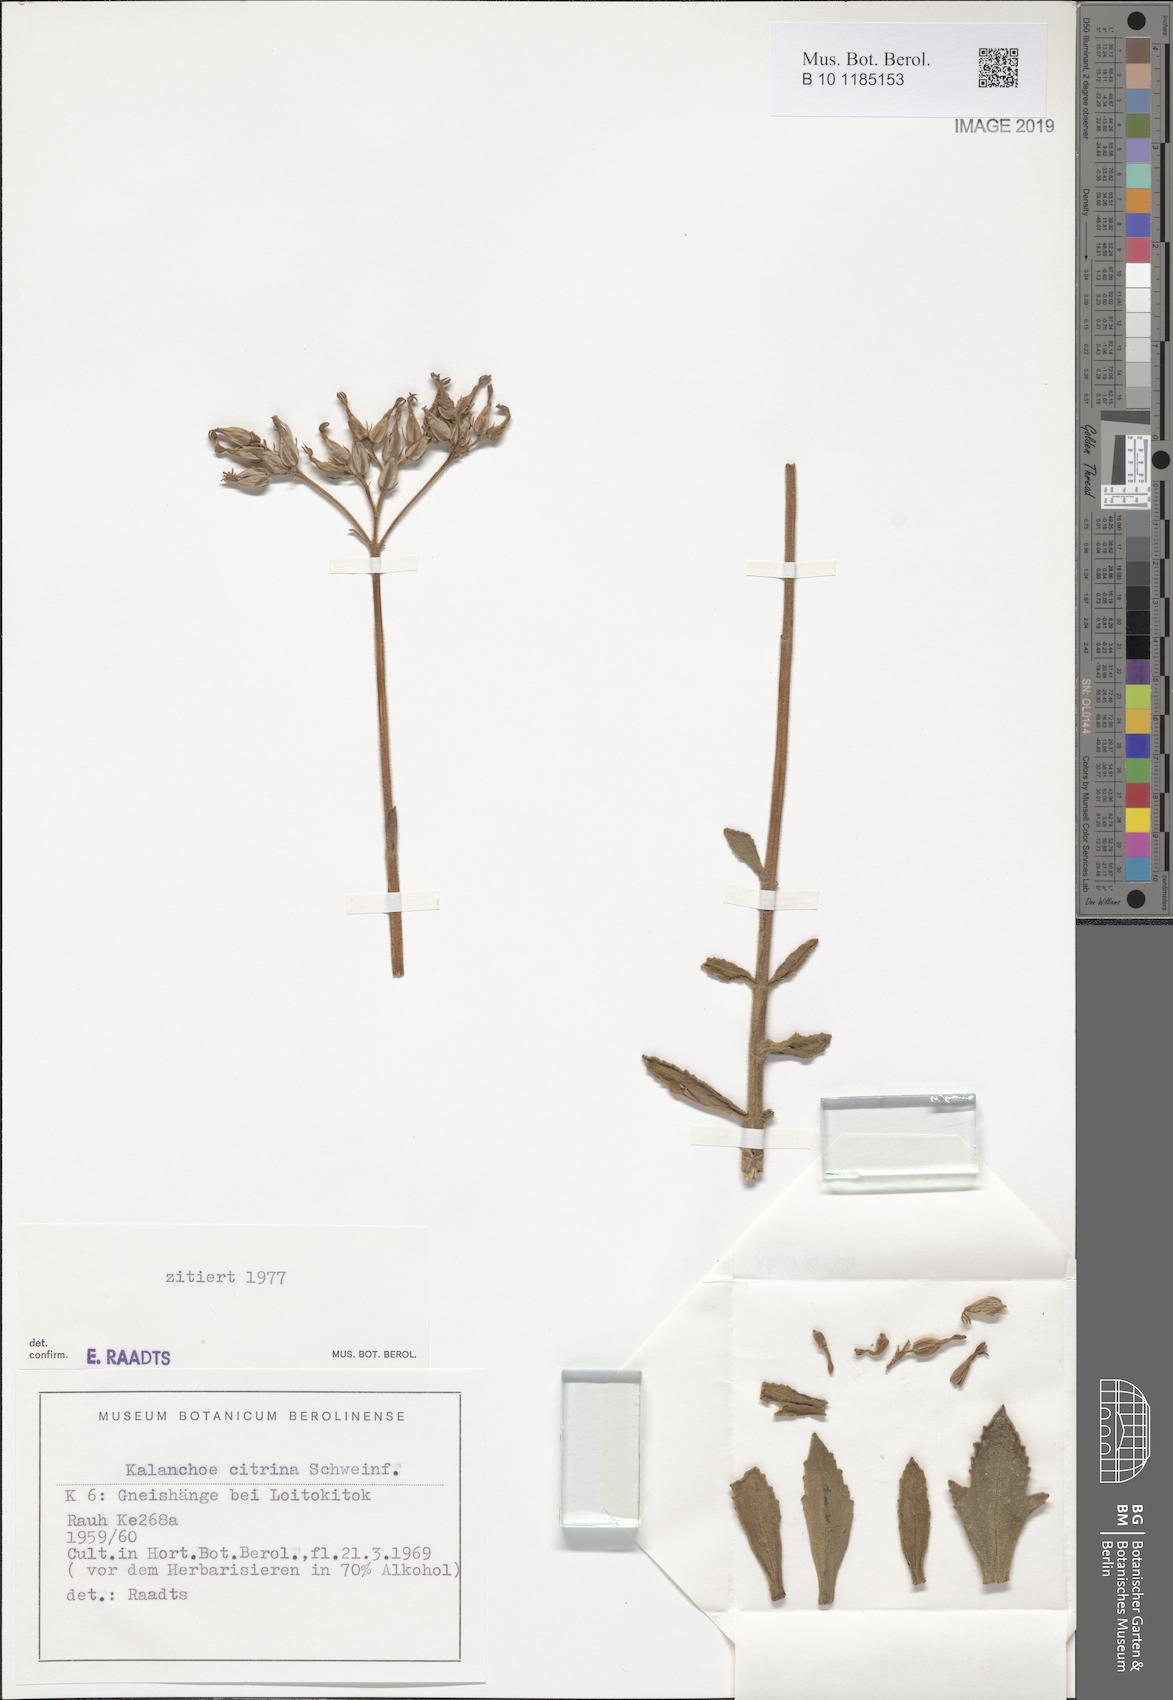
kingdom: Plantae
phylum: Tracheophyta
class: Magnoliopsida
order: Saxifragales
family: Crassulaceae
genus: Kalanchoe
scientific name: Kalanchoe citrina
